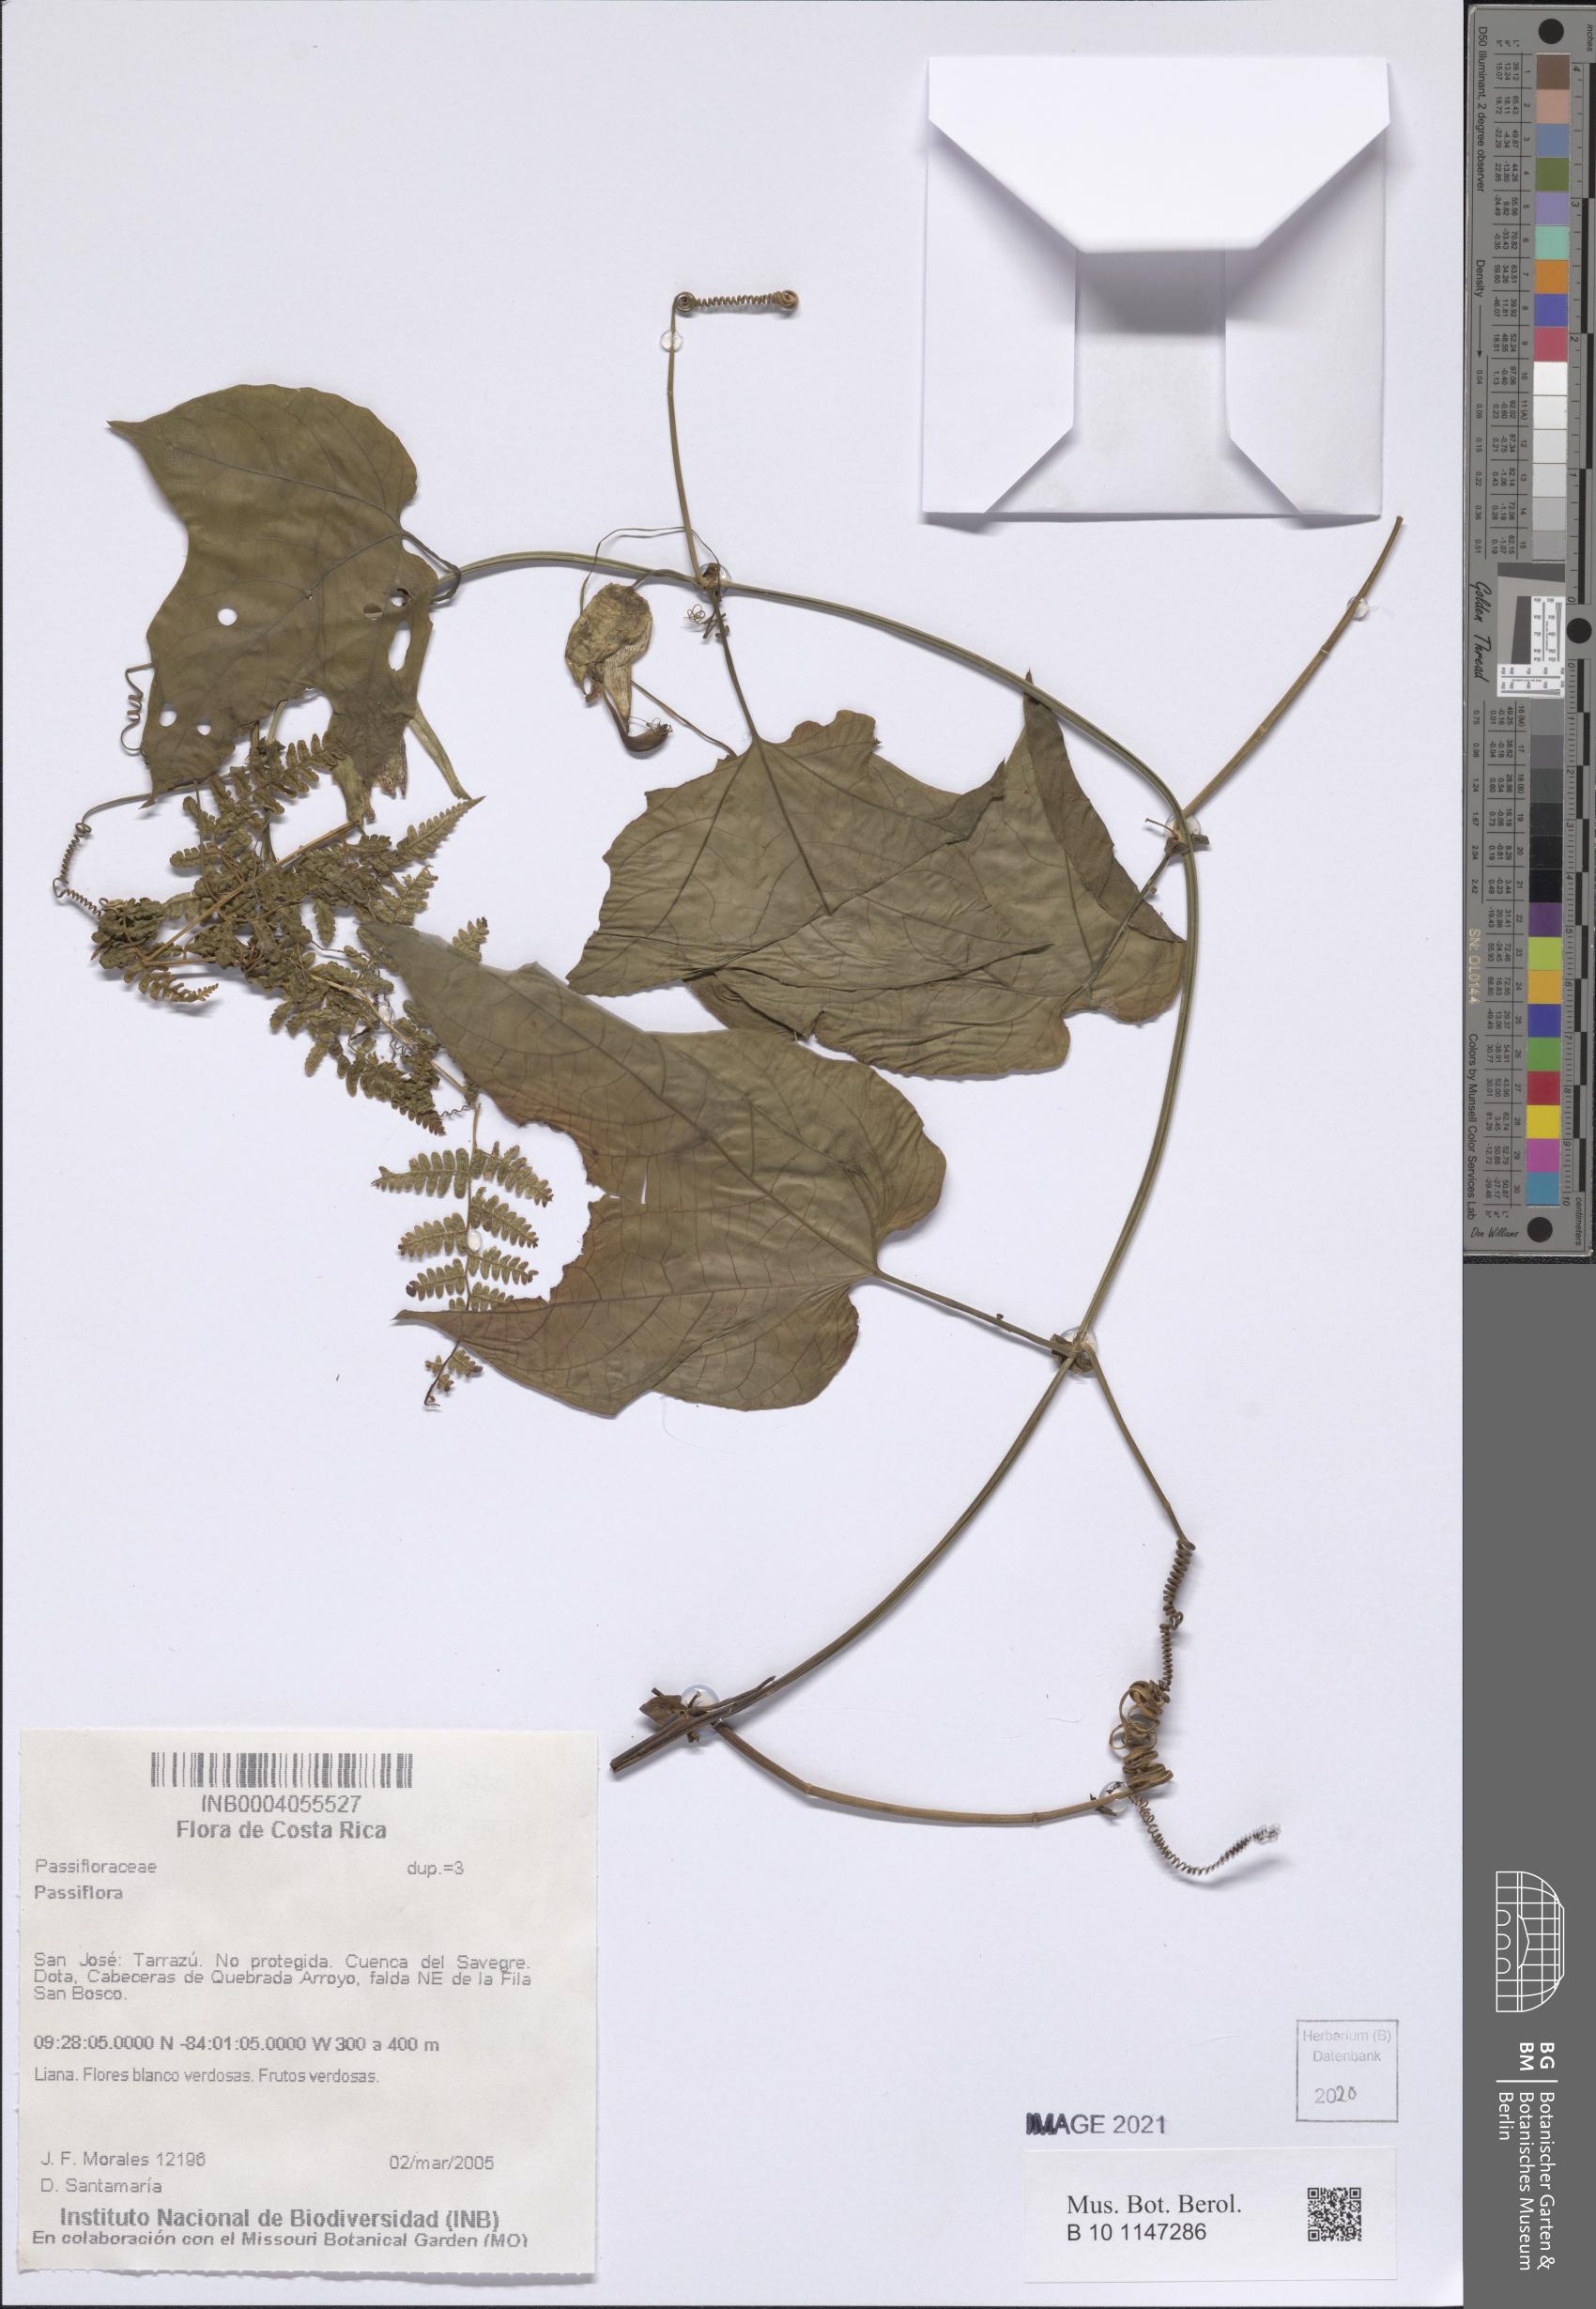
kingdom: Plantae
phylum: Tracheophyta
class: Magnoliopsida
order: Malpighiales
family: Passifloraceae
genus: Passiflora
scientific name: Passiflora
